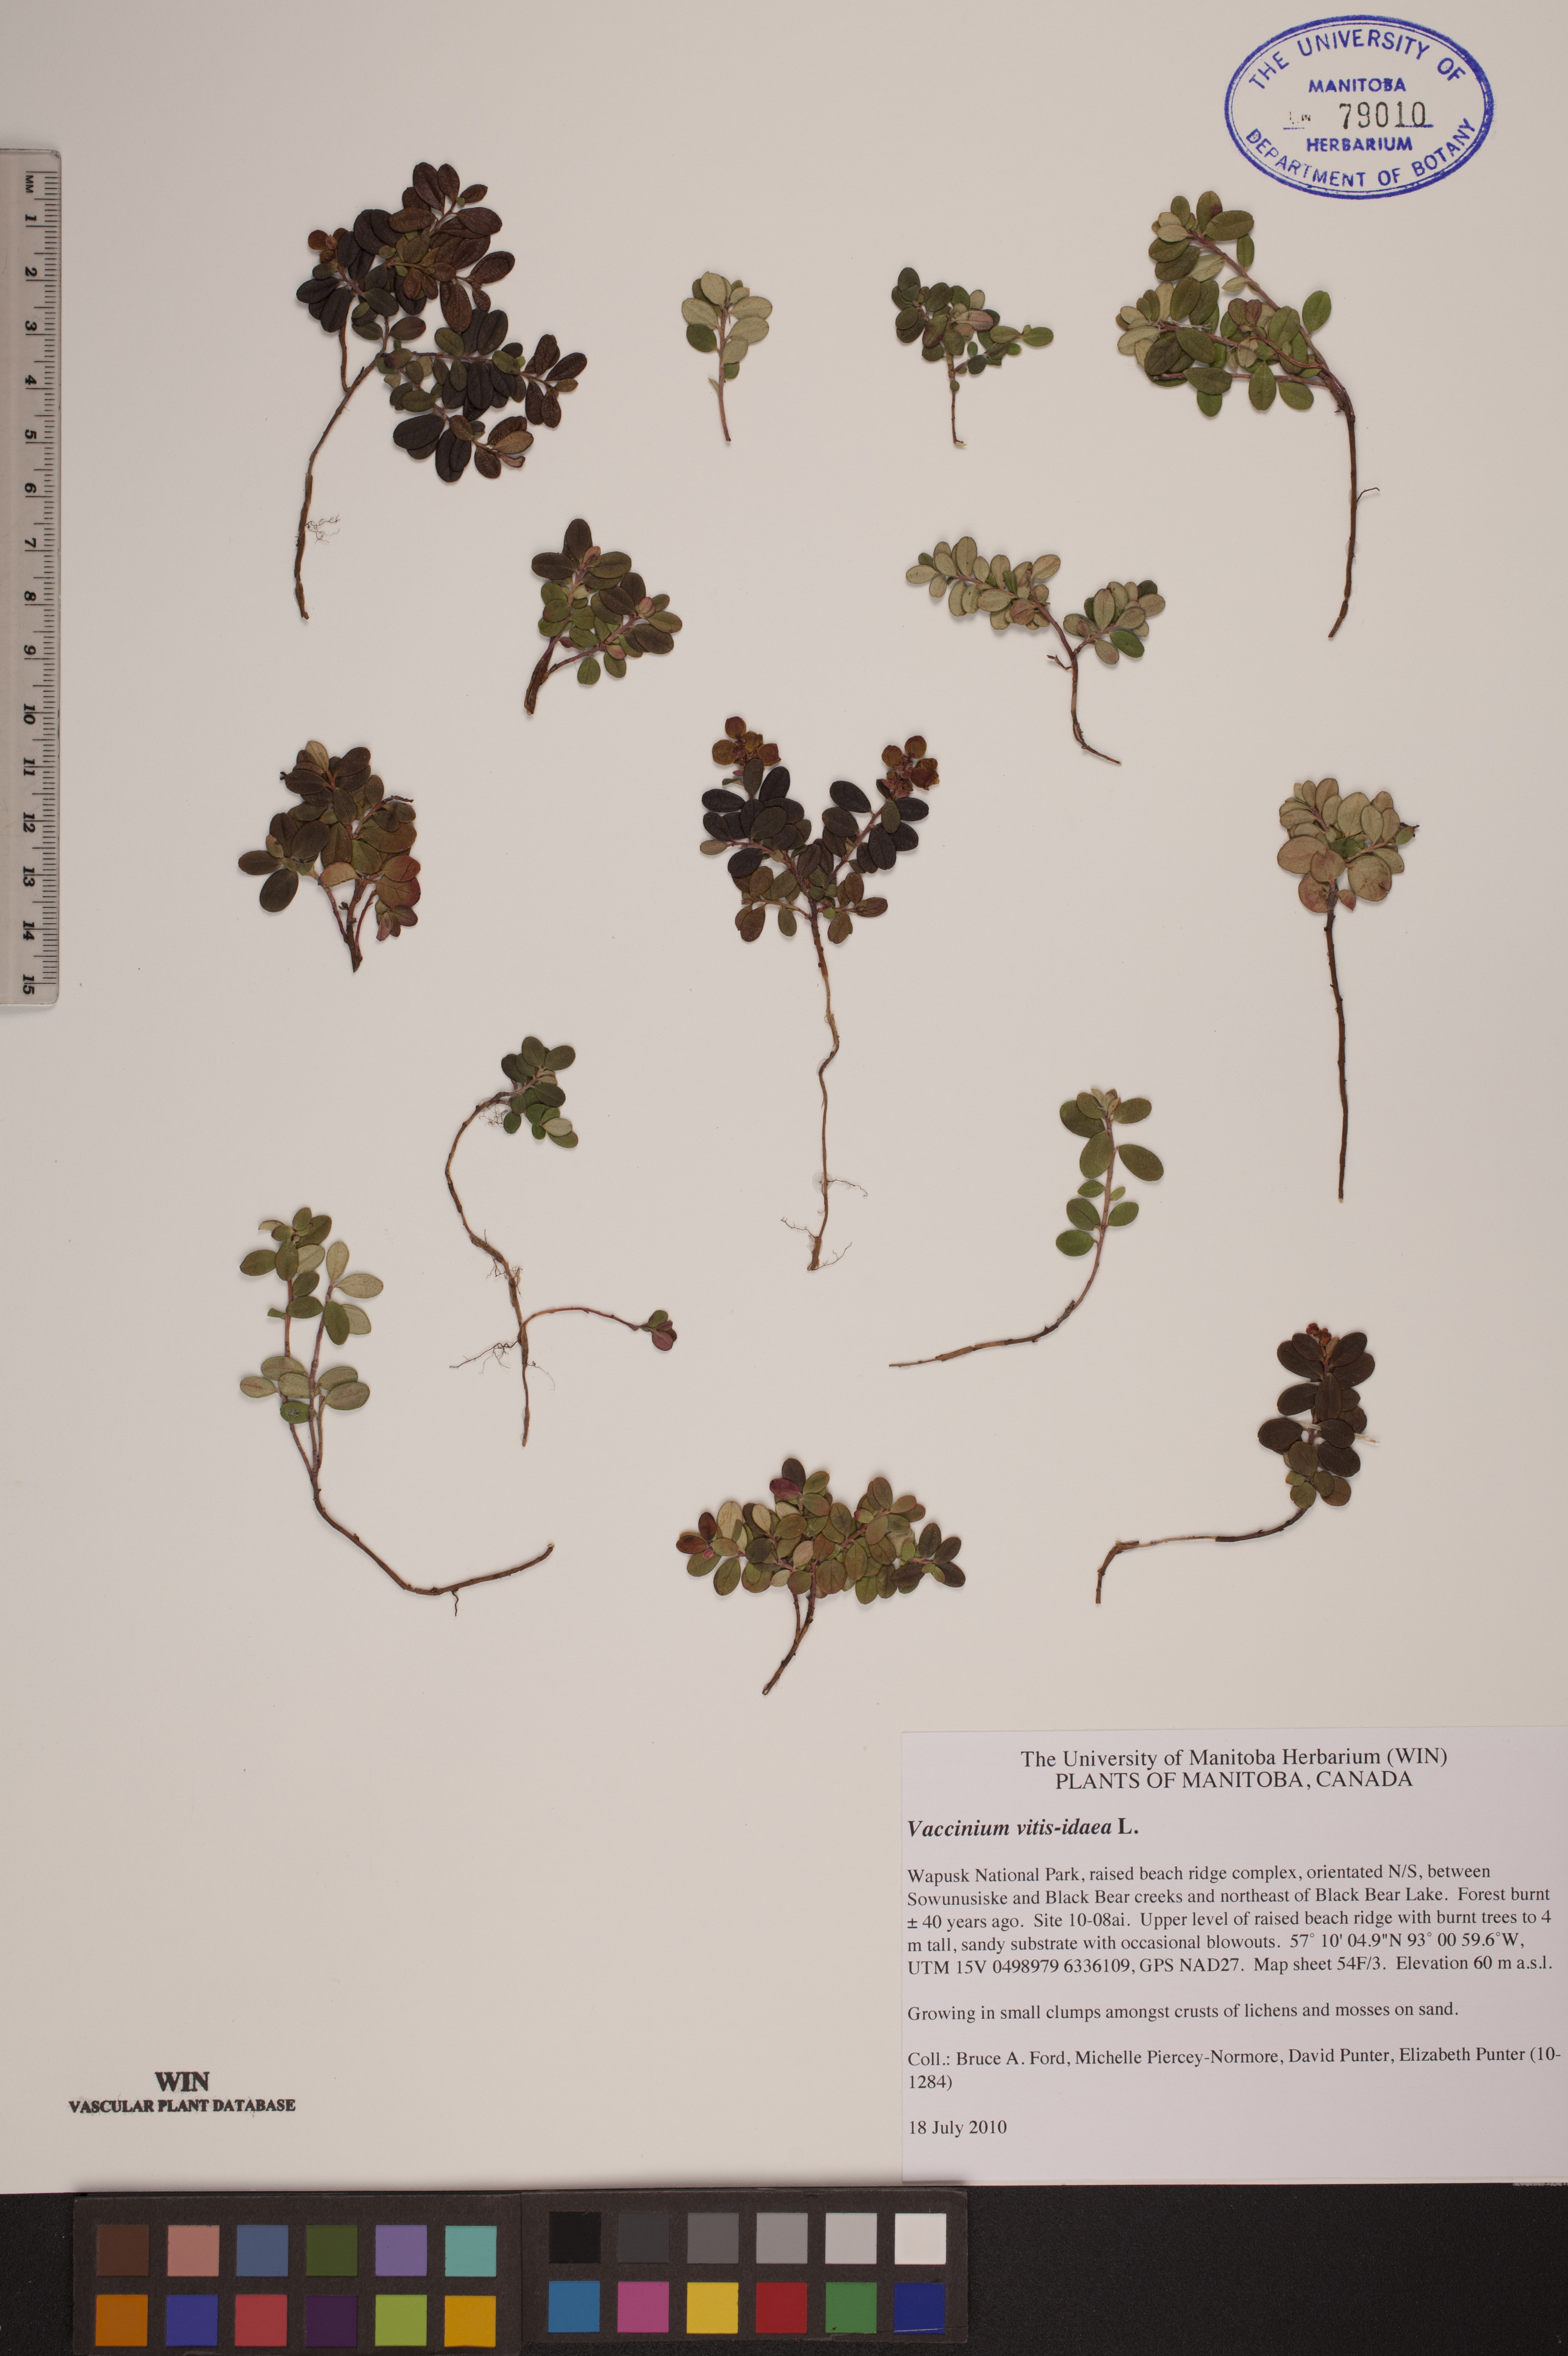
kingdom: Plantae
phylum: Tracheophyta
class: Magnoliopsida
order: Ericales
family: Ericaceae
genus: Vaccinium
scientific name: Vaccinium vitis-idaea
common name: Cowberry
